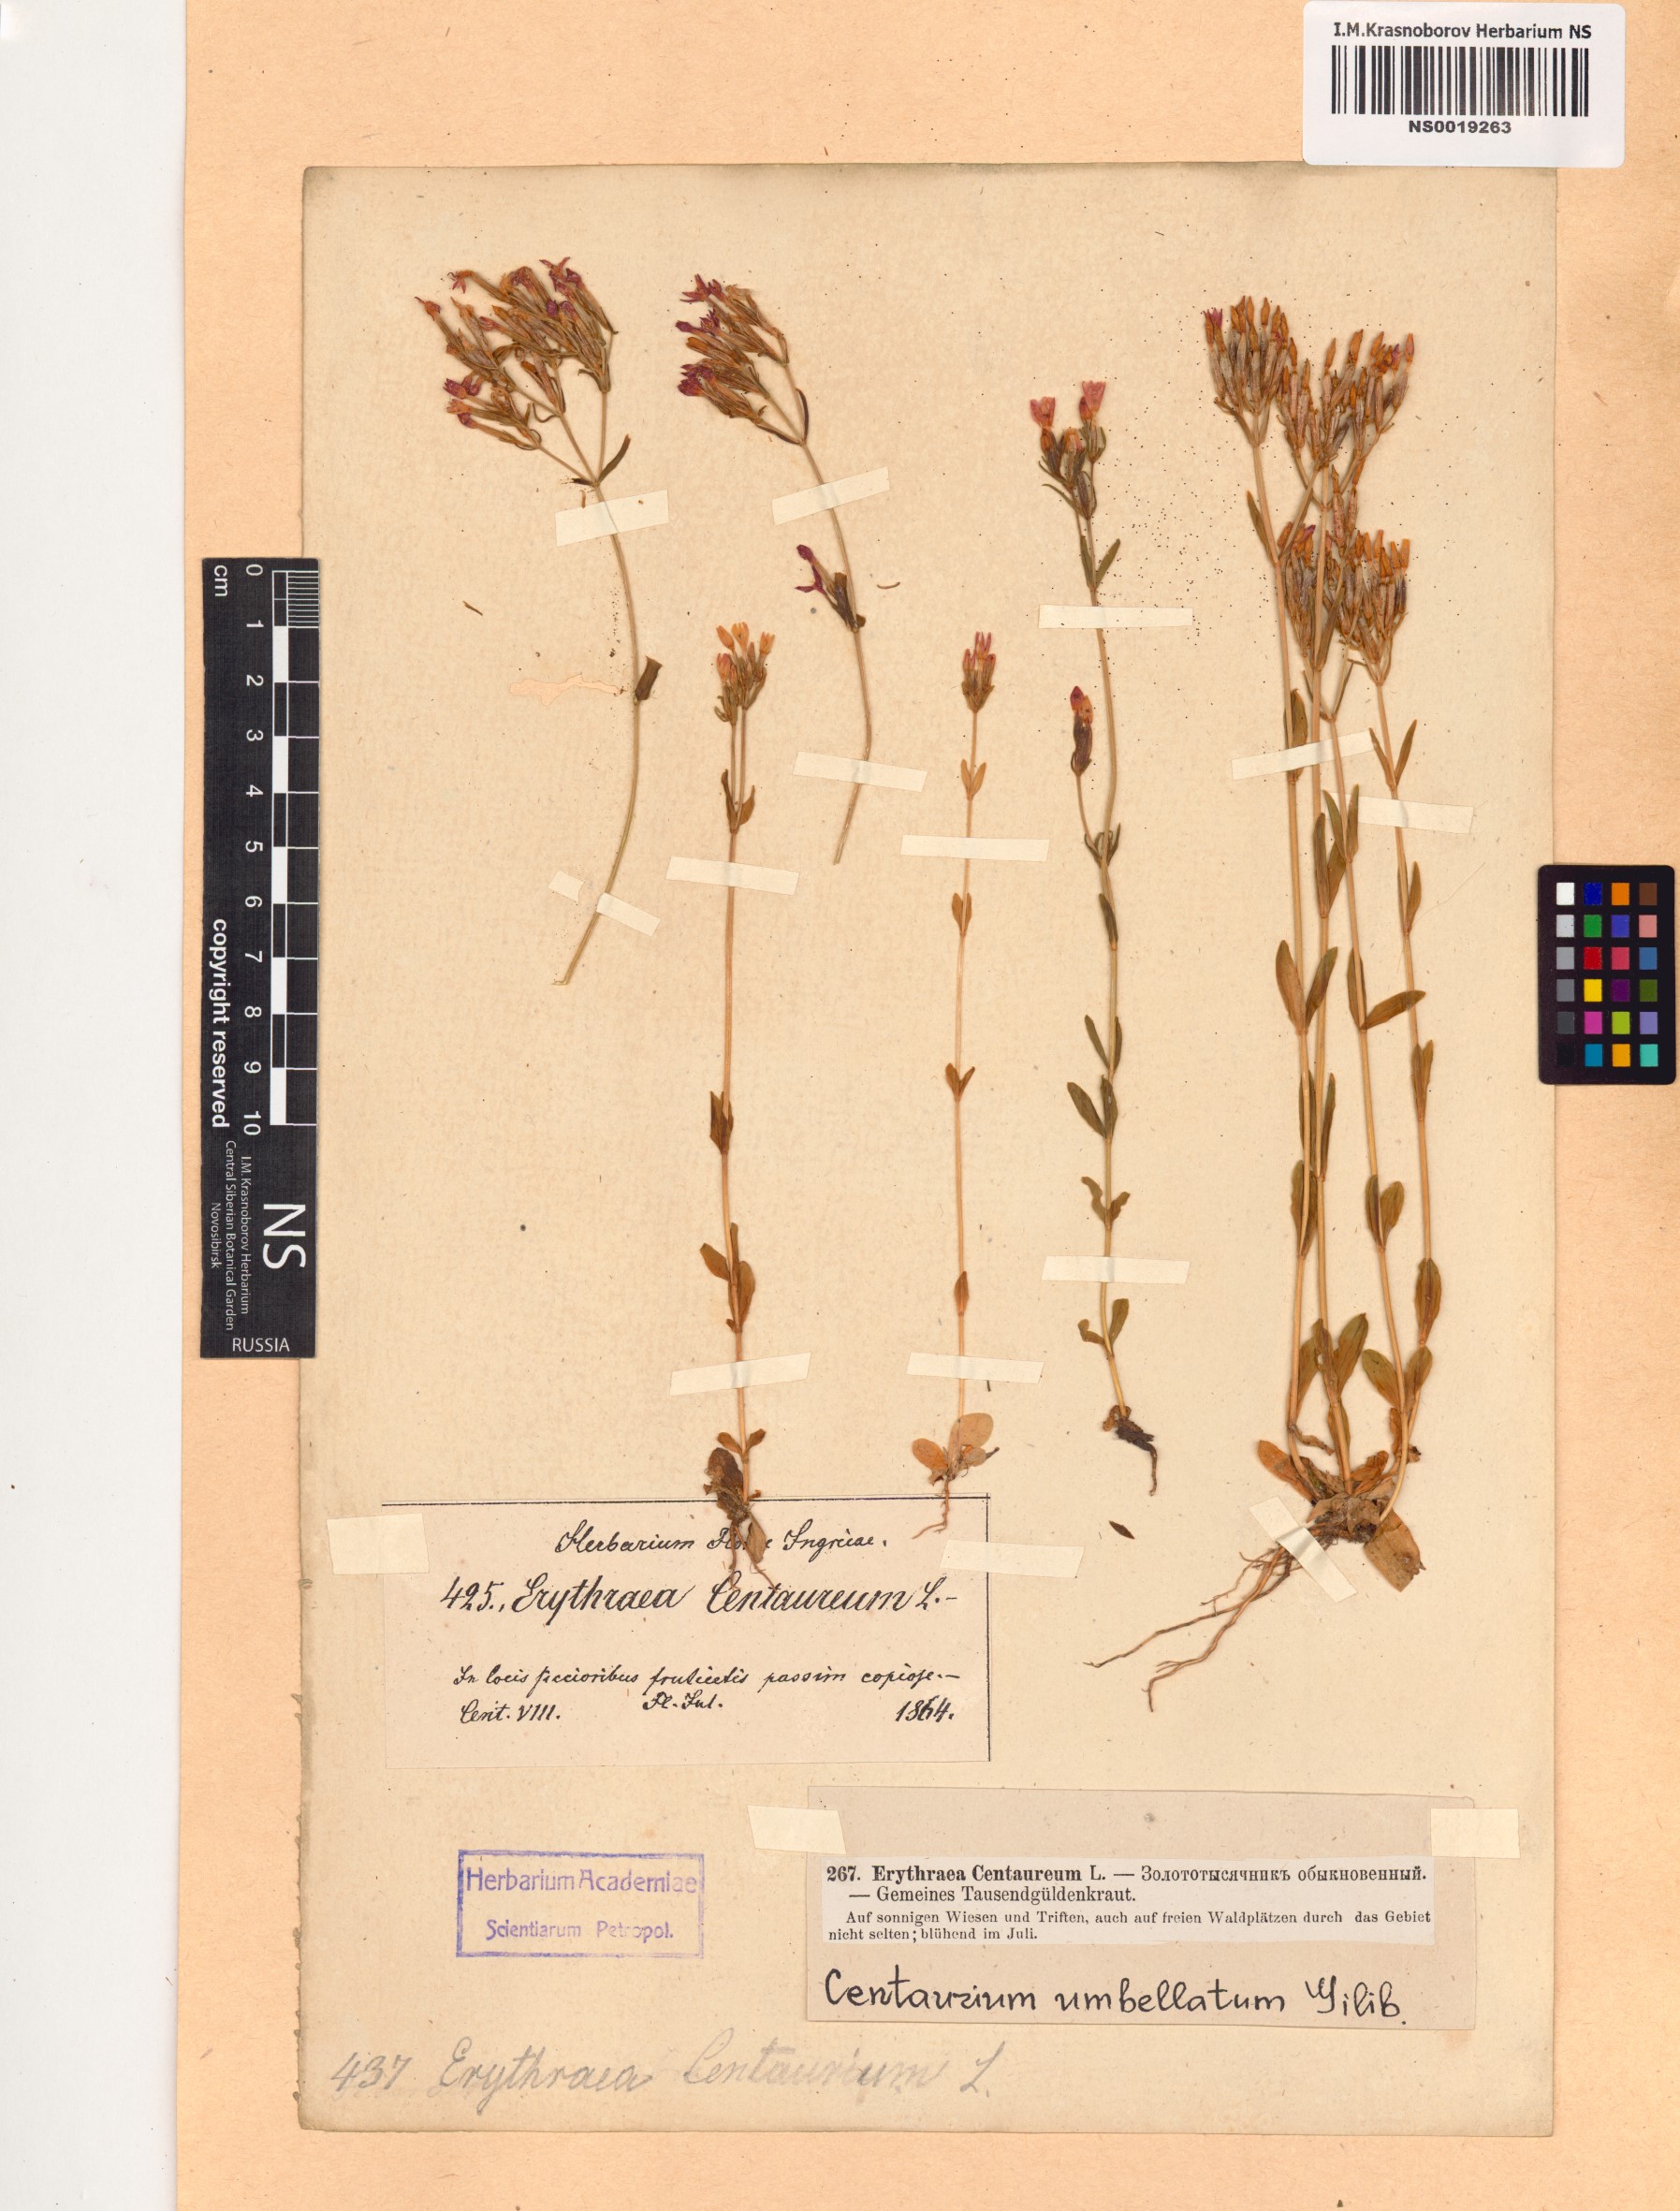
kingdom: Plantae
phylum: Tracheophyta
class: Magnoliopsida
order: Gentianales
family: Gentianaceae
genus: Centaurium
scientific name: Centaurium erythraea
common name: Common centaury
